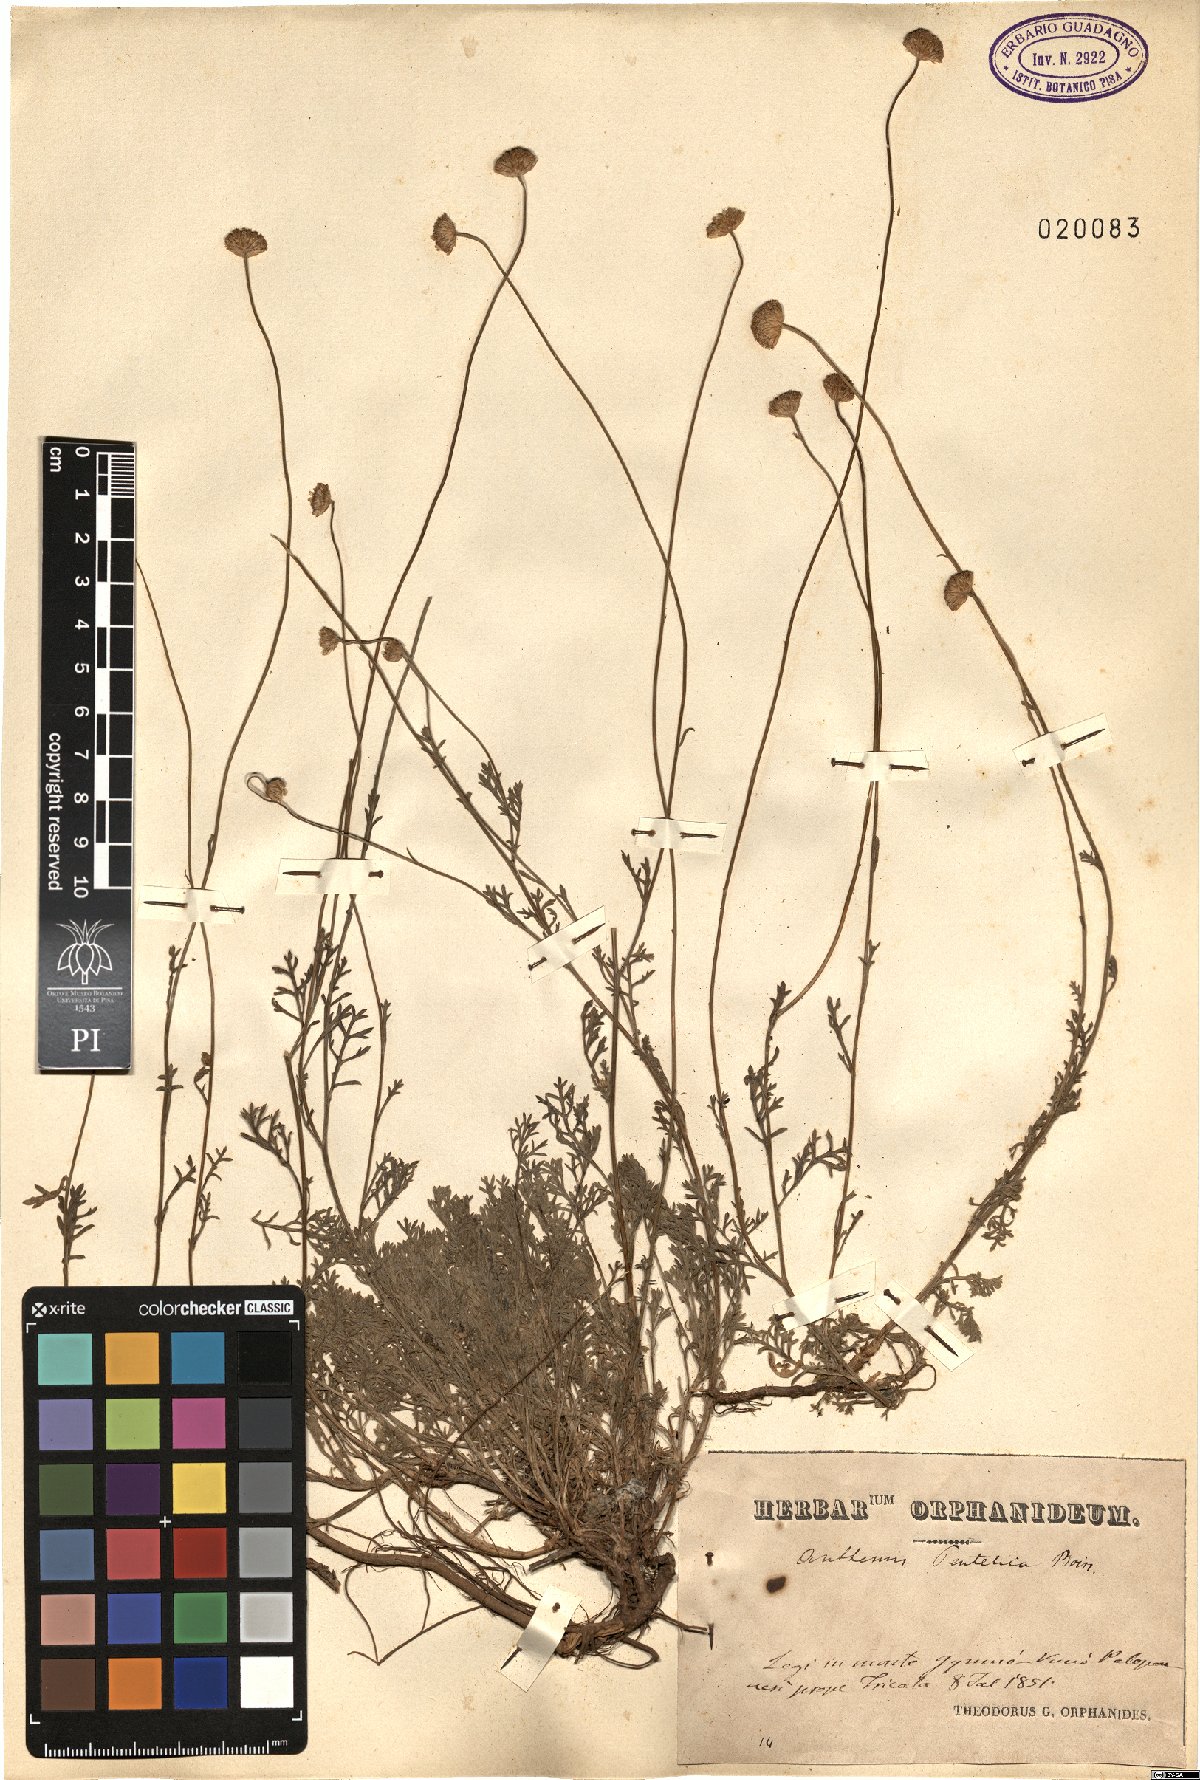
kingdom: Plantae
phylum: Tracheophyta
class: Magnoliopsida
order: Asterales
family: Asteraceae
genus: Anthemis
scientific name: Anthemis cretica
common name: Mountain dog-daisy
